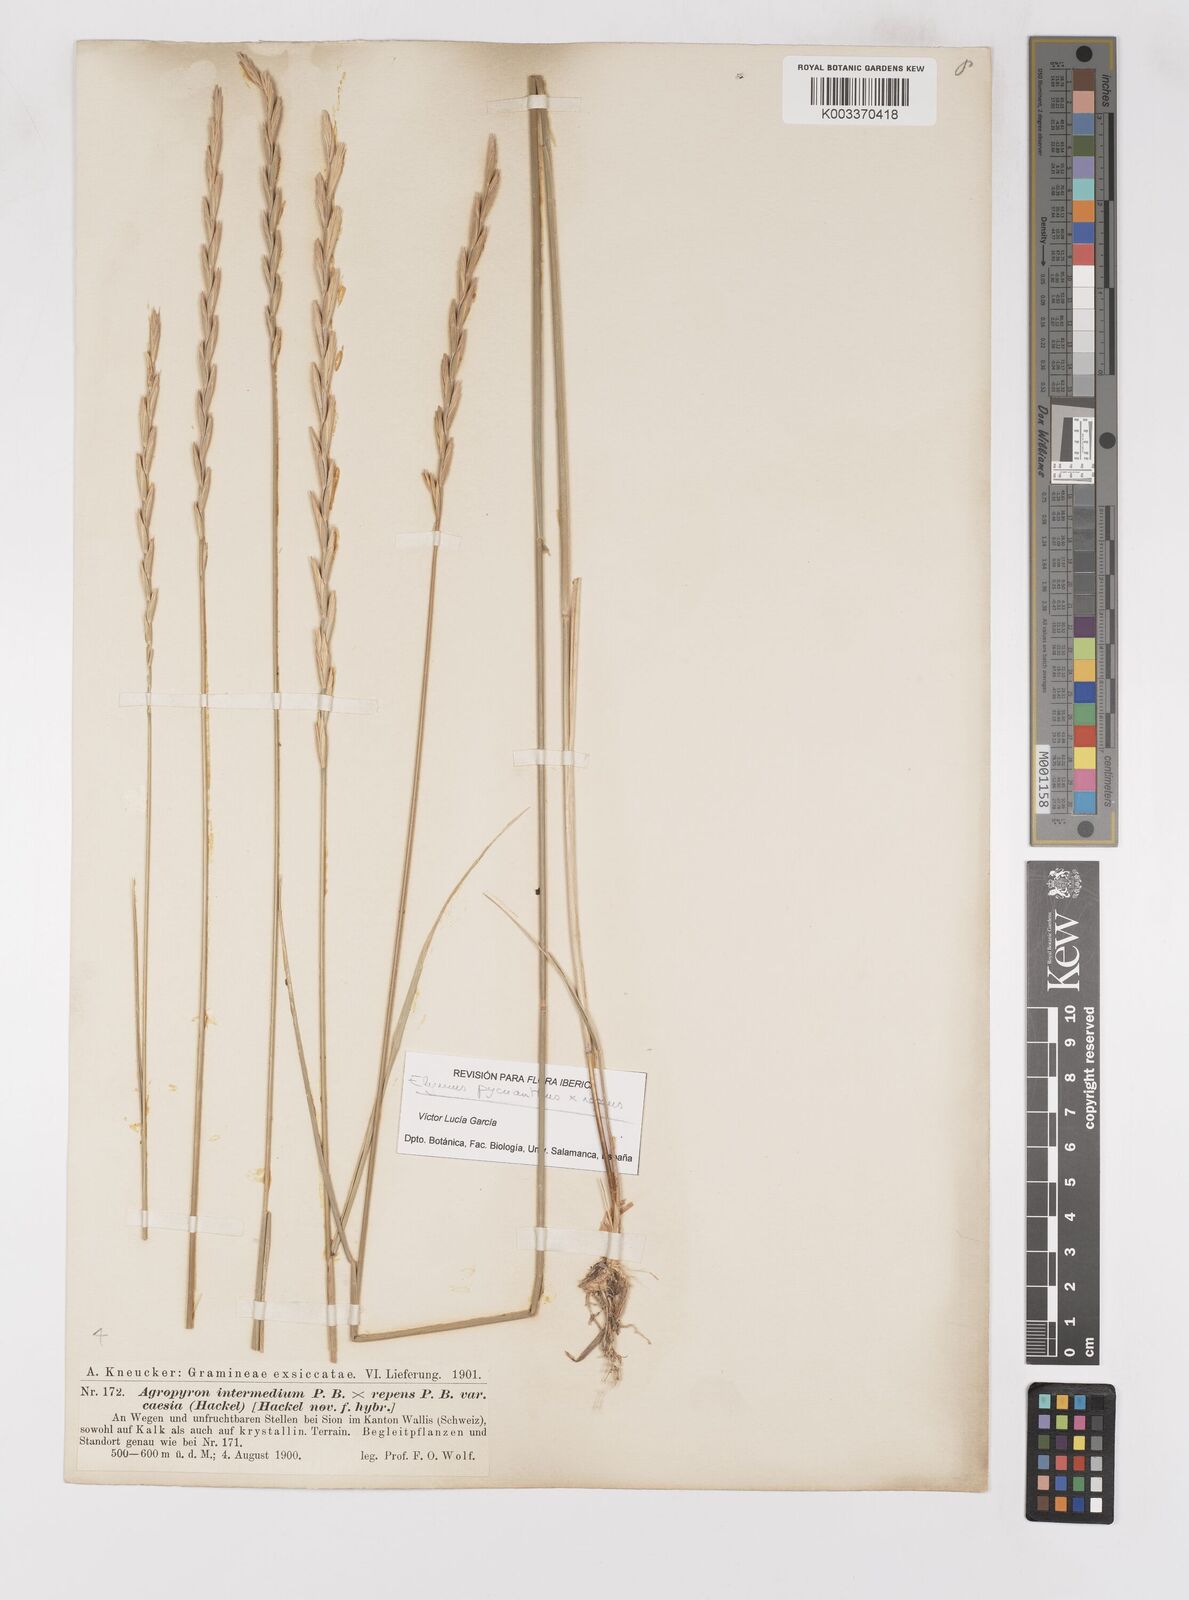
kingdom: Plantae
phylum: Tracheophyta
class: Liliopsida
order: Poales
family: Poaceae
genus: Elymus
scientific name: Elymus oliveri
